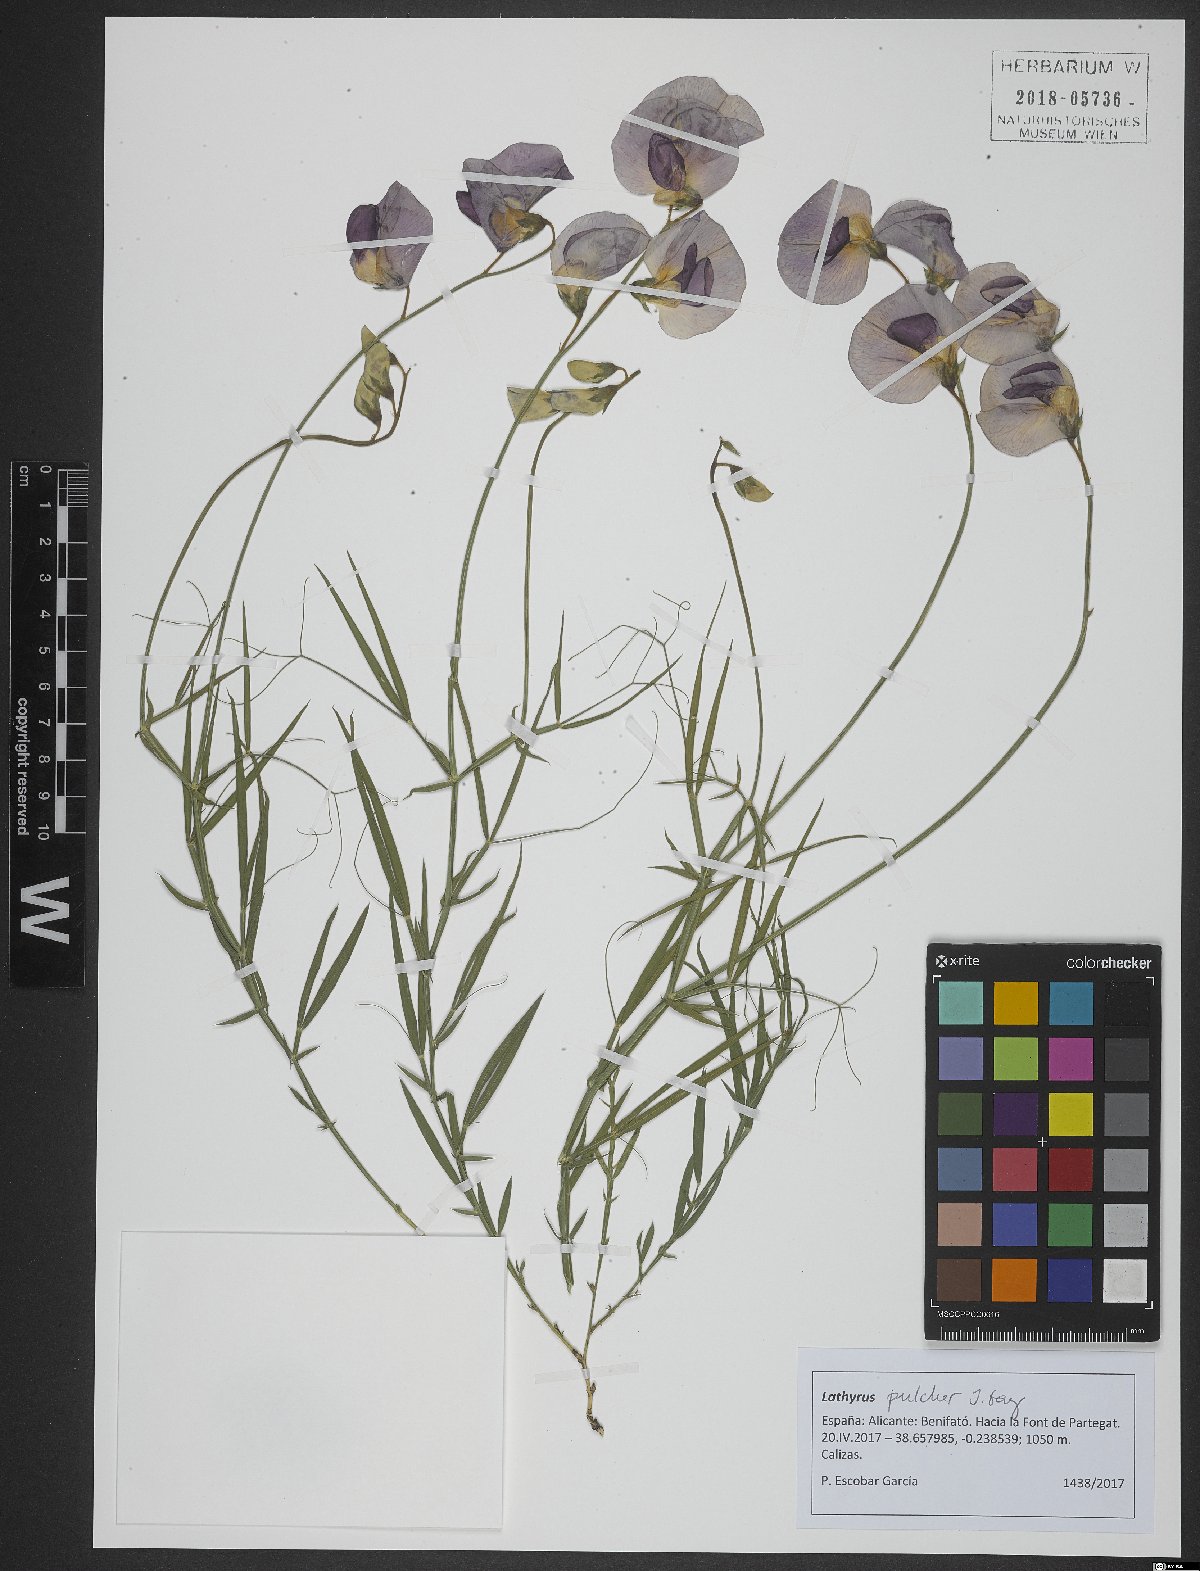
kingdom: Plantae
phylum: Tracheophyta
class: Magnoliopsida
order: Fabales
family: Fabaceae
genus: Lathyrus
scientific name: Lathyrus tremolsianus
